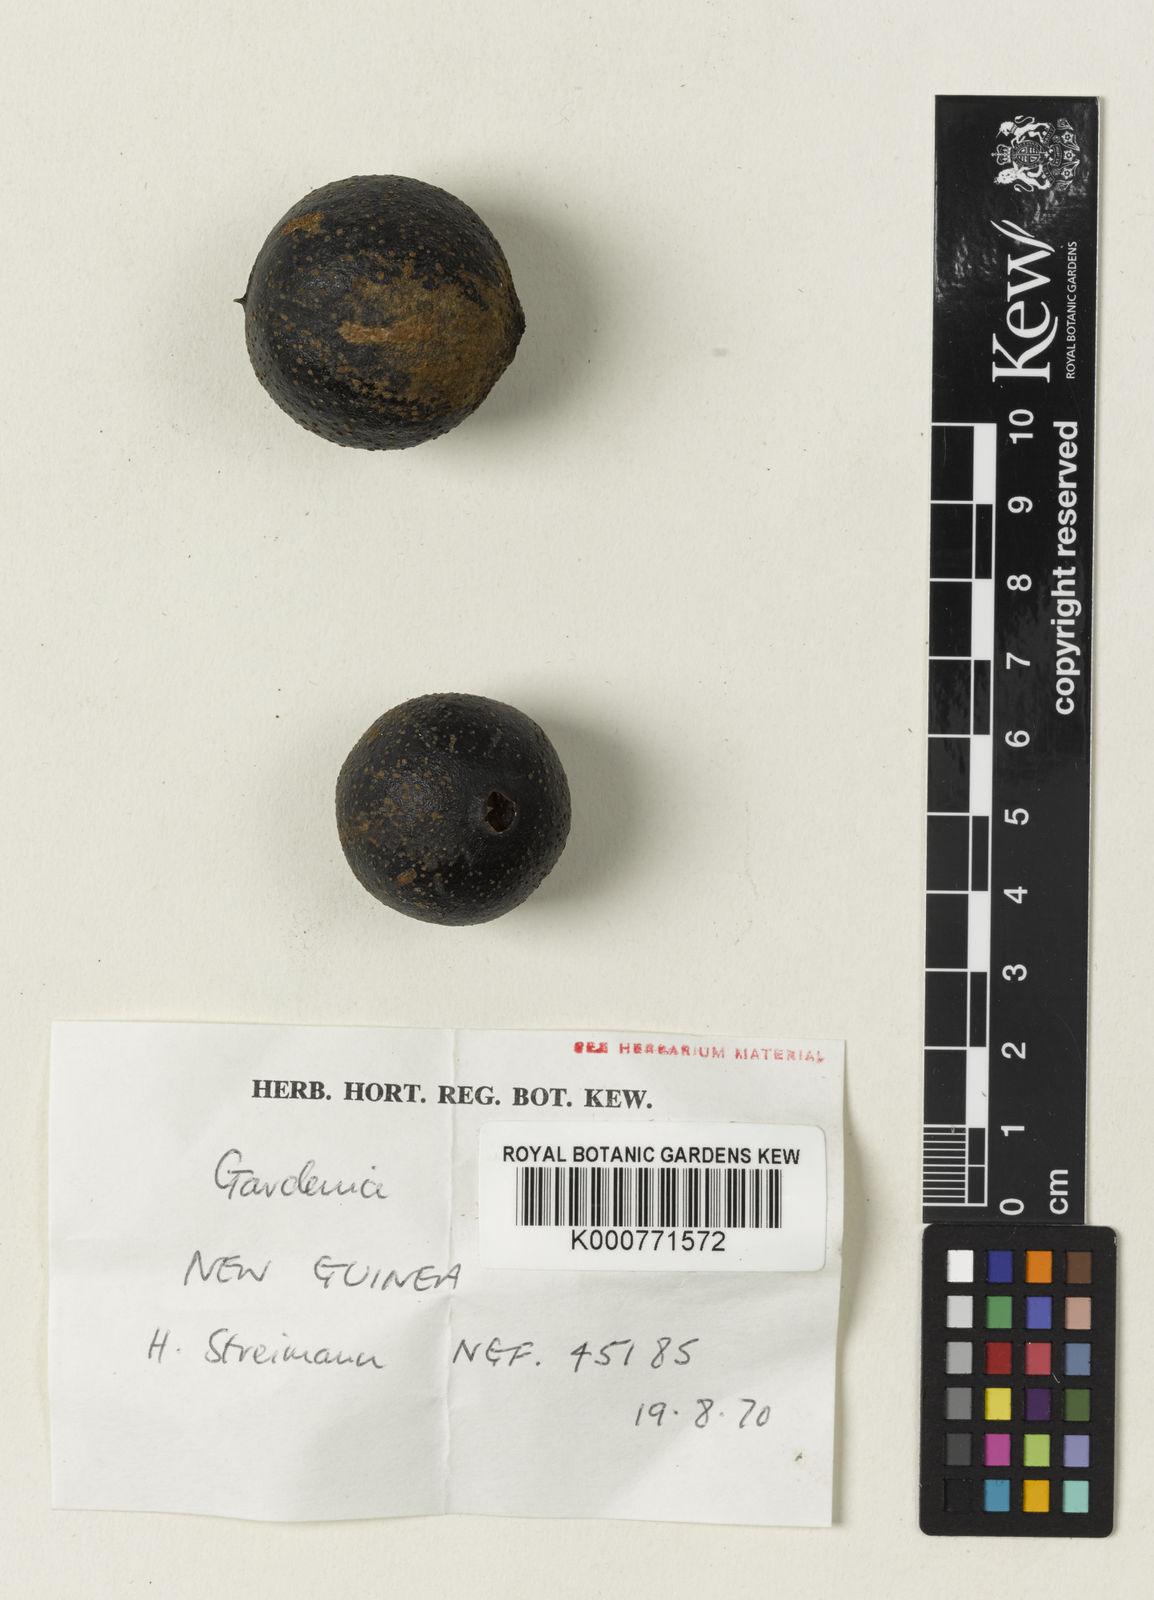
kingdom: Plantae
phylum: Tracheophyta
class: Magnoliopsida
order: Gentianales
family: Rubiaceae
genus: Gardenia
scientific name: Gardenia lamingtonii
